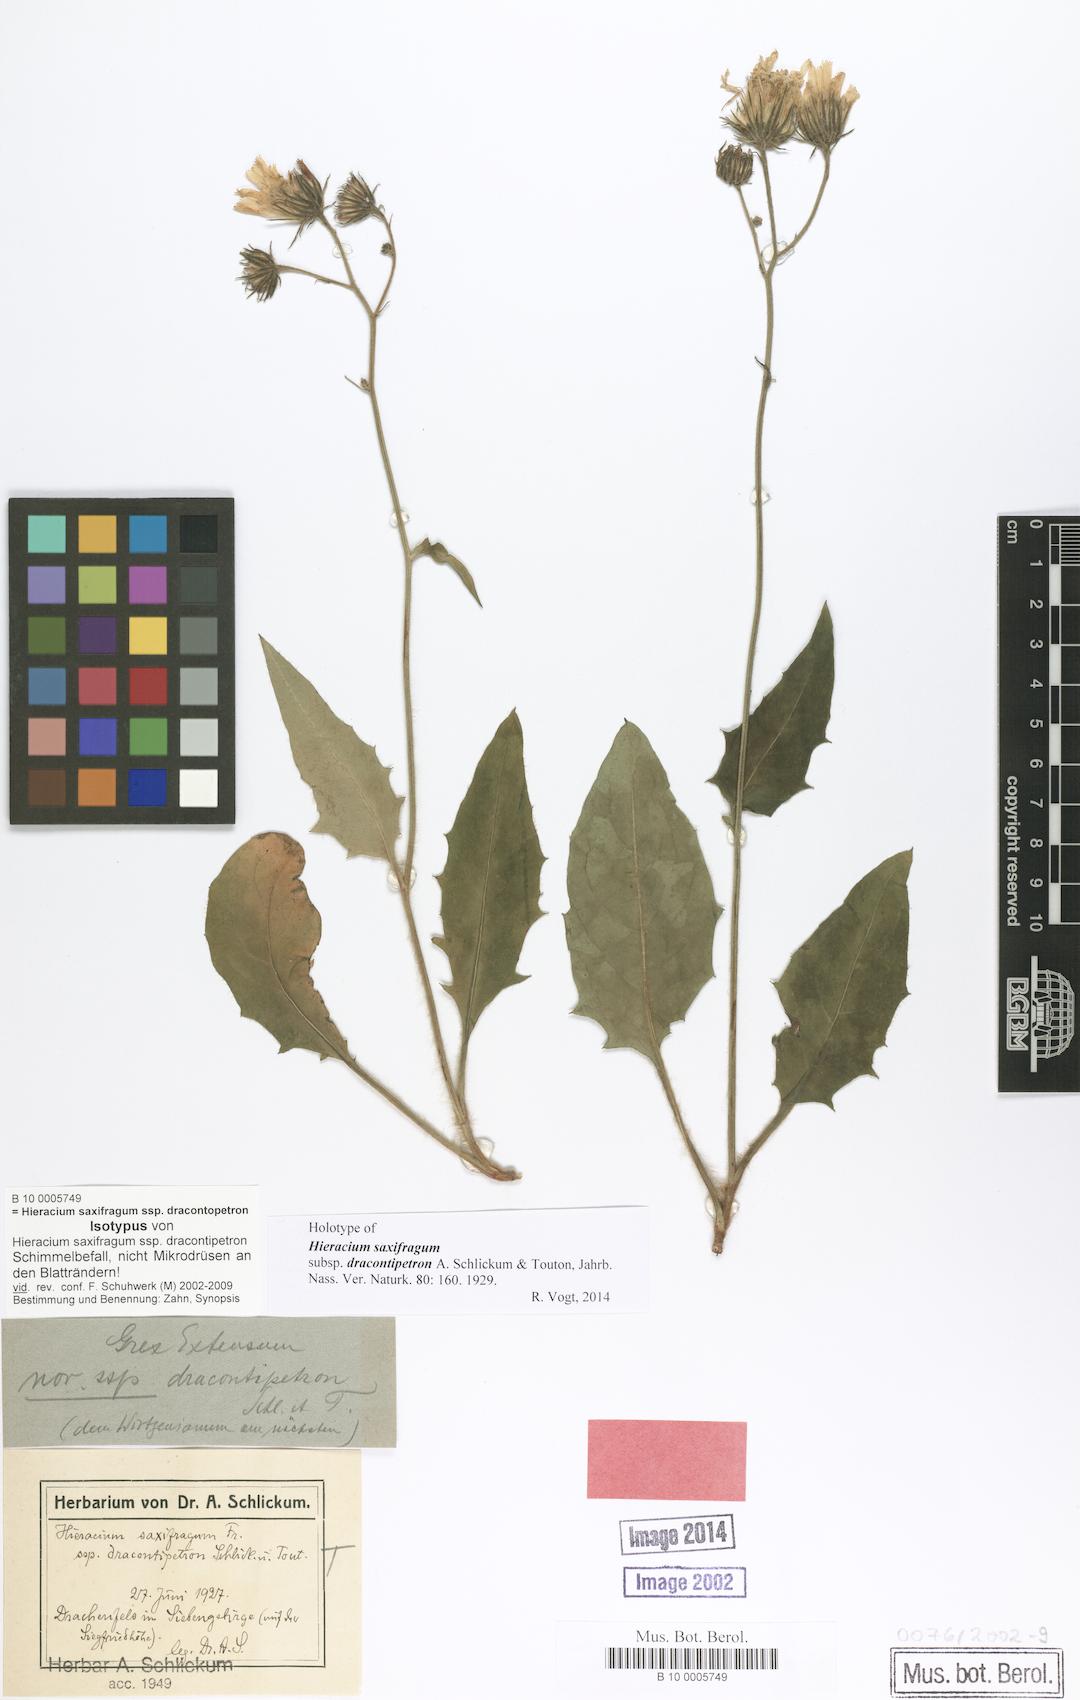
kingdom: Plantae
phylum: Tracheophyta
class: Magnoliopsida
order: Asterales
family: Asteraceae
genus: Hieracium
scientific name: Hieracium saxifragum
